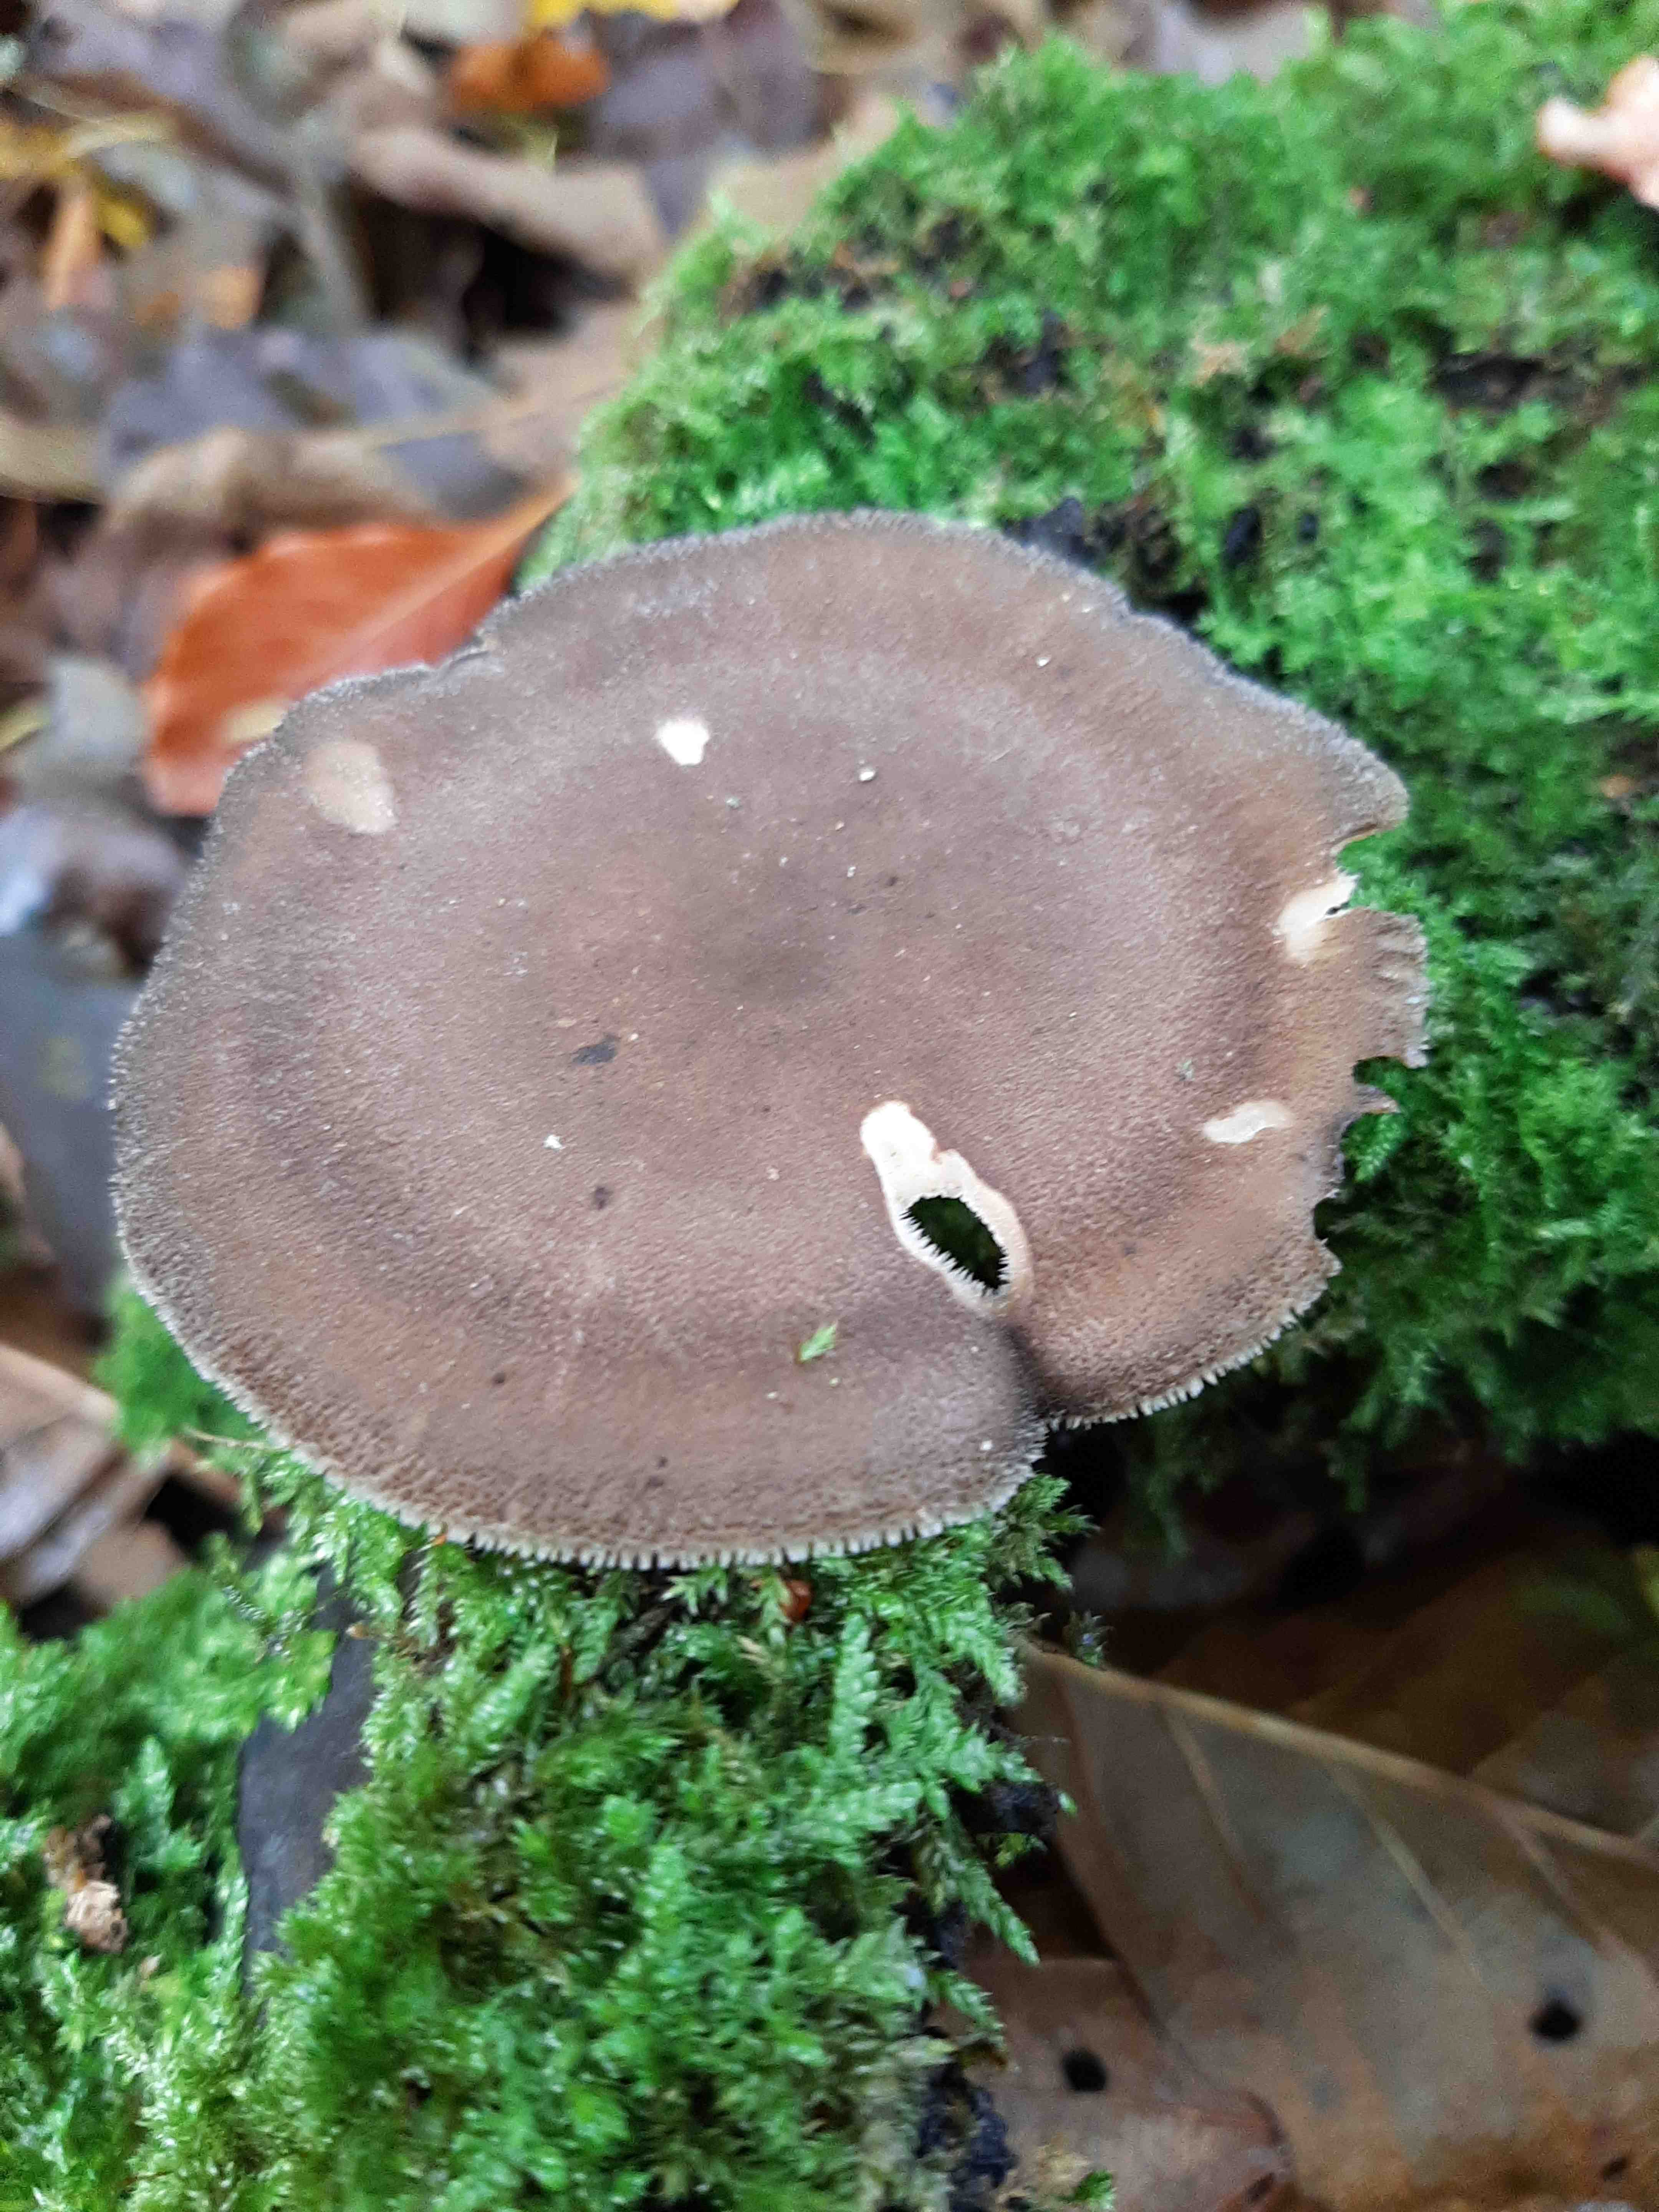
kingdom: Fungi
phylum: Basidiomycota
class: Agaricomycetes
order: Polyporales
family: Polyporaceae
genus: Lentinus
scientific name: Lentinus brumalis
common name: vinter-stilkporesvamp
